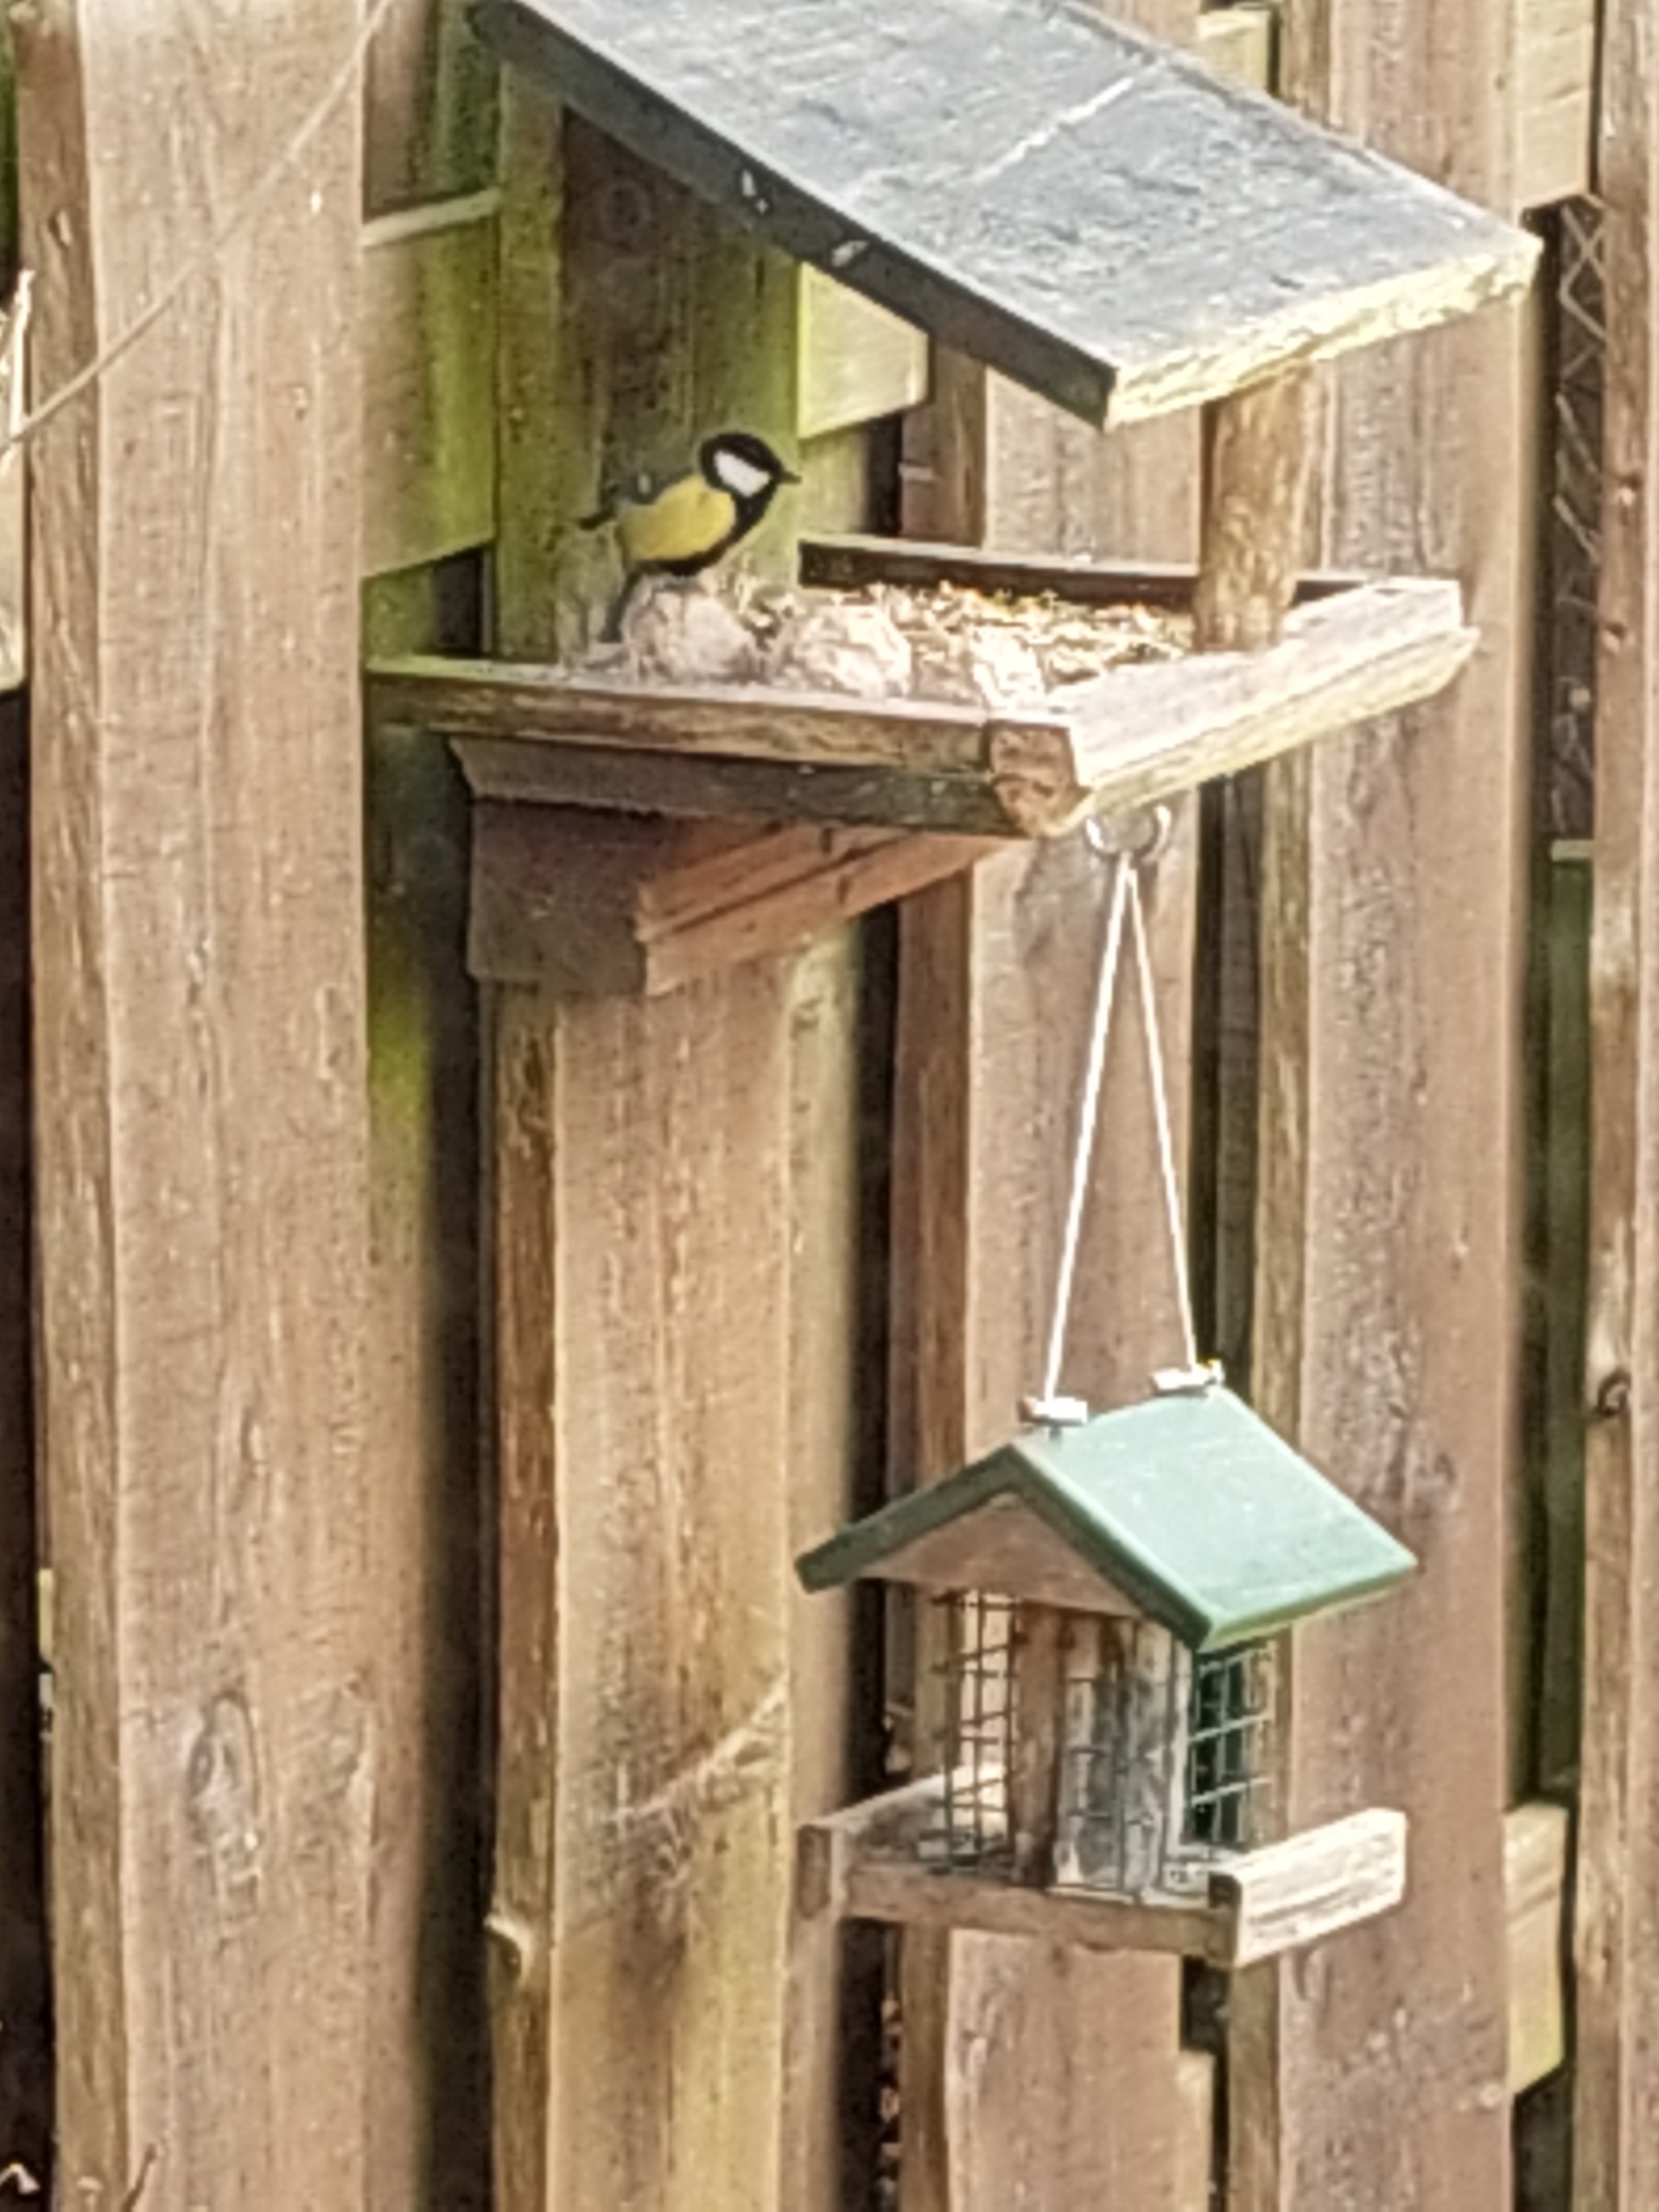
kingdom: Animalia
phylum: Chordata
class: Aves
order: Passeriformes
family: Paridae
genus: Parus
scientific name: Parus major
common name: Musvit
